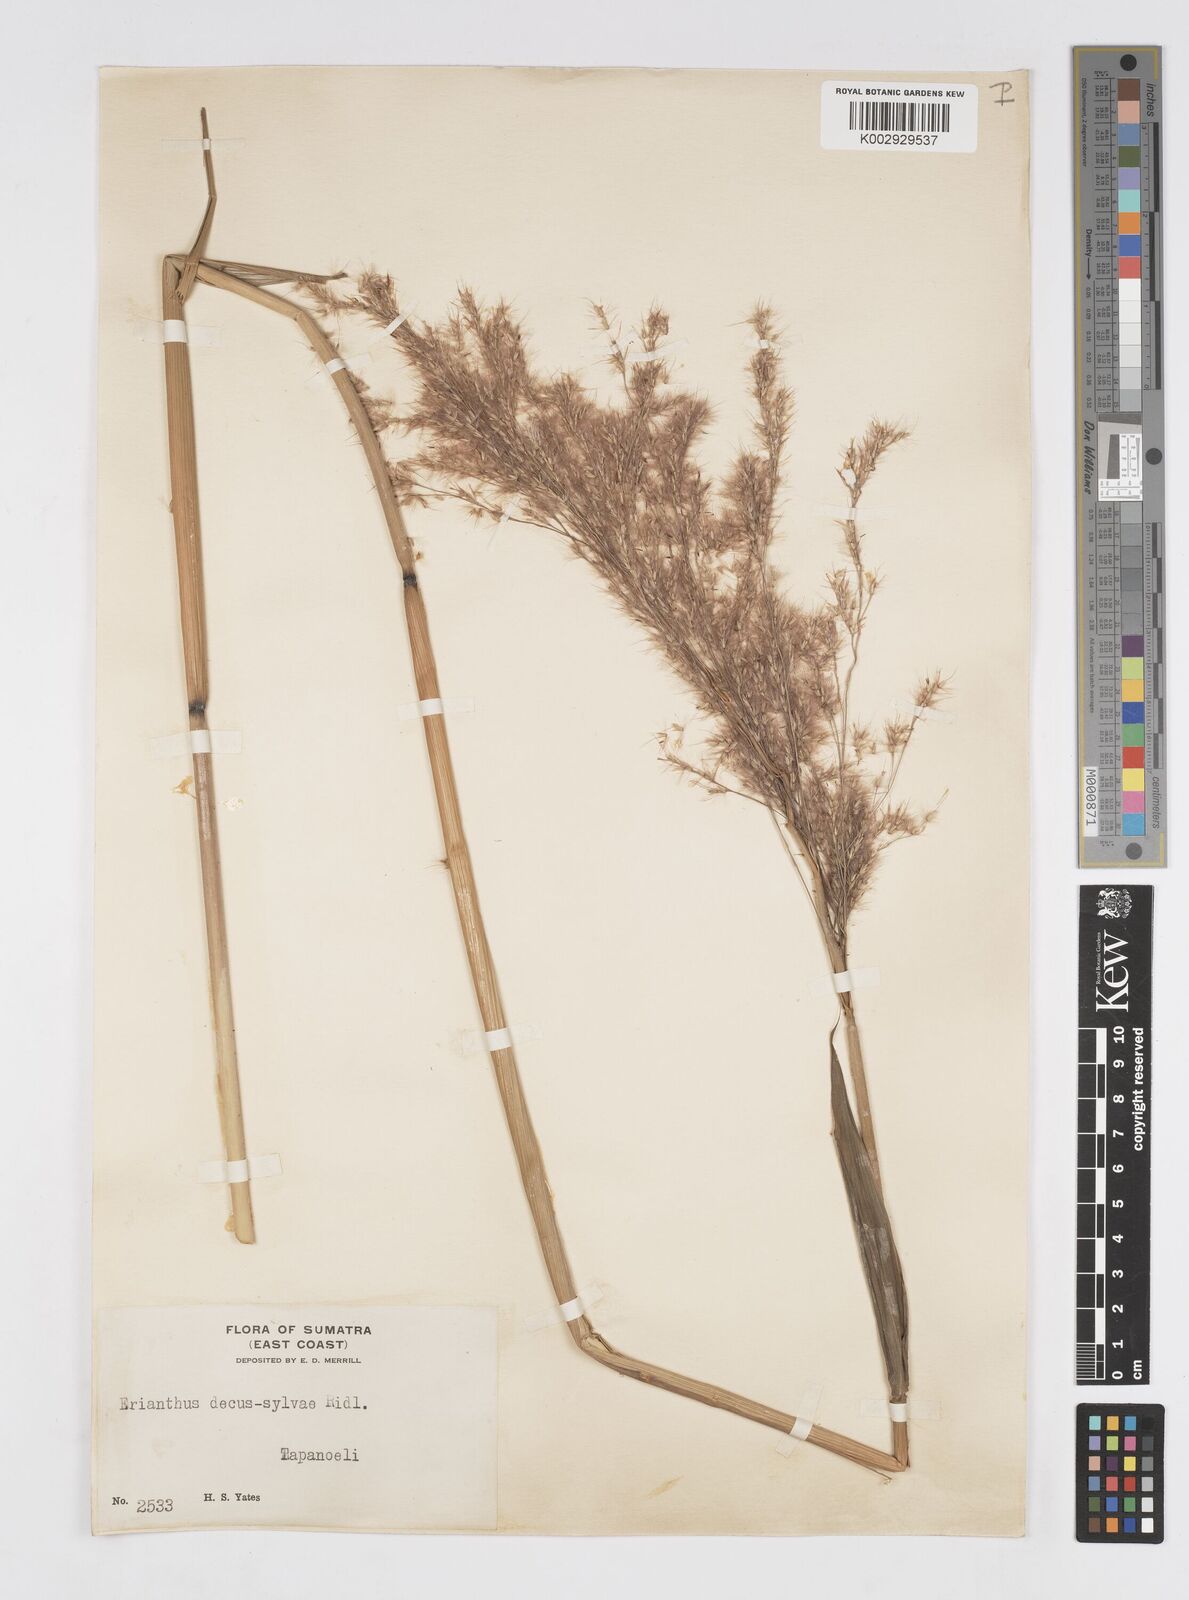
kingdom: Plantae
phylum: Tracheophyta
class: Liliopsida
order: Poales
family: Poaceae
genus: Saccharum
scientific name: Saccharum
